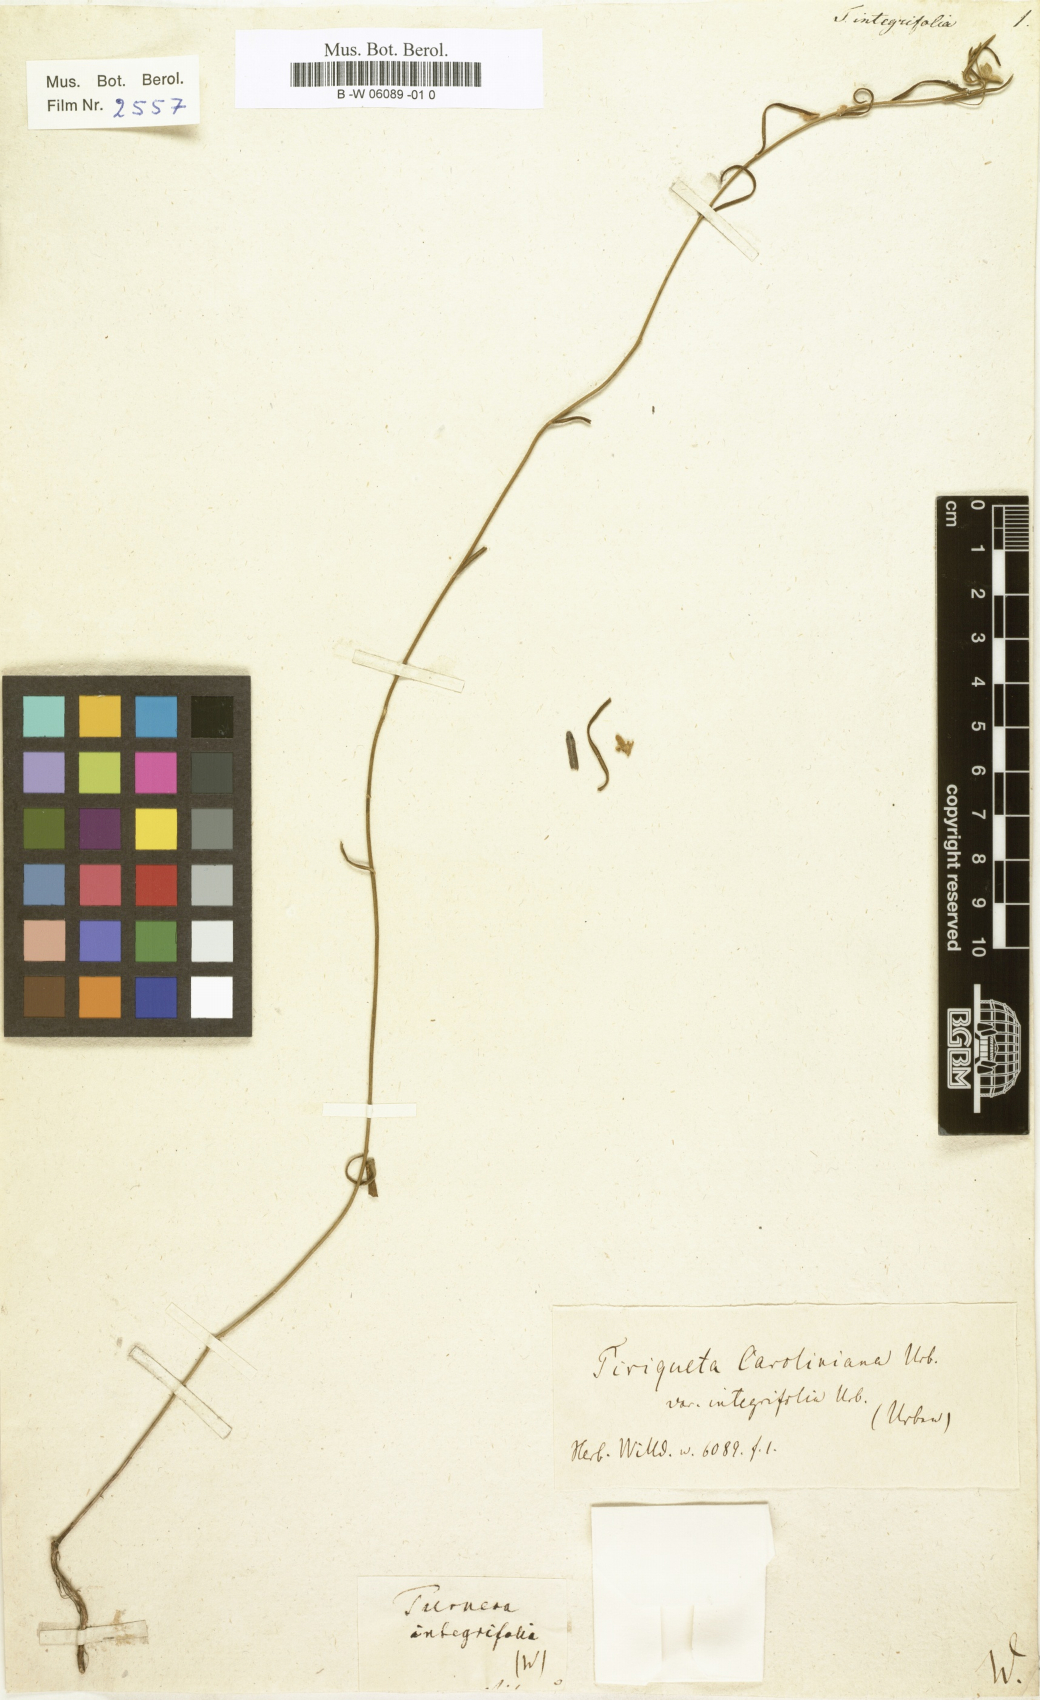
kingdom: Plantae
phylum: Tracheophyta
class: Magnoliopsida
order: Malpighiales
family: Turneraceae
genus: Piriqueta
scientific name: Piriqueta cistoides
